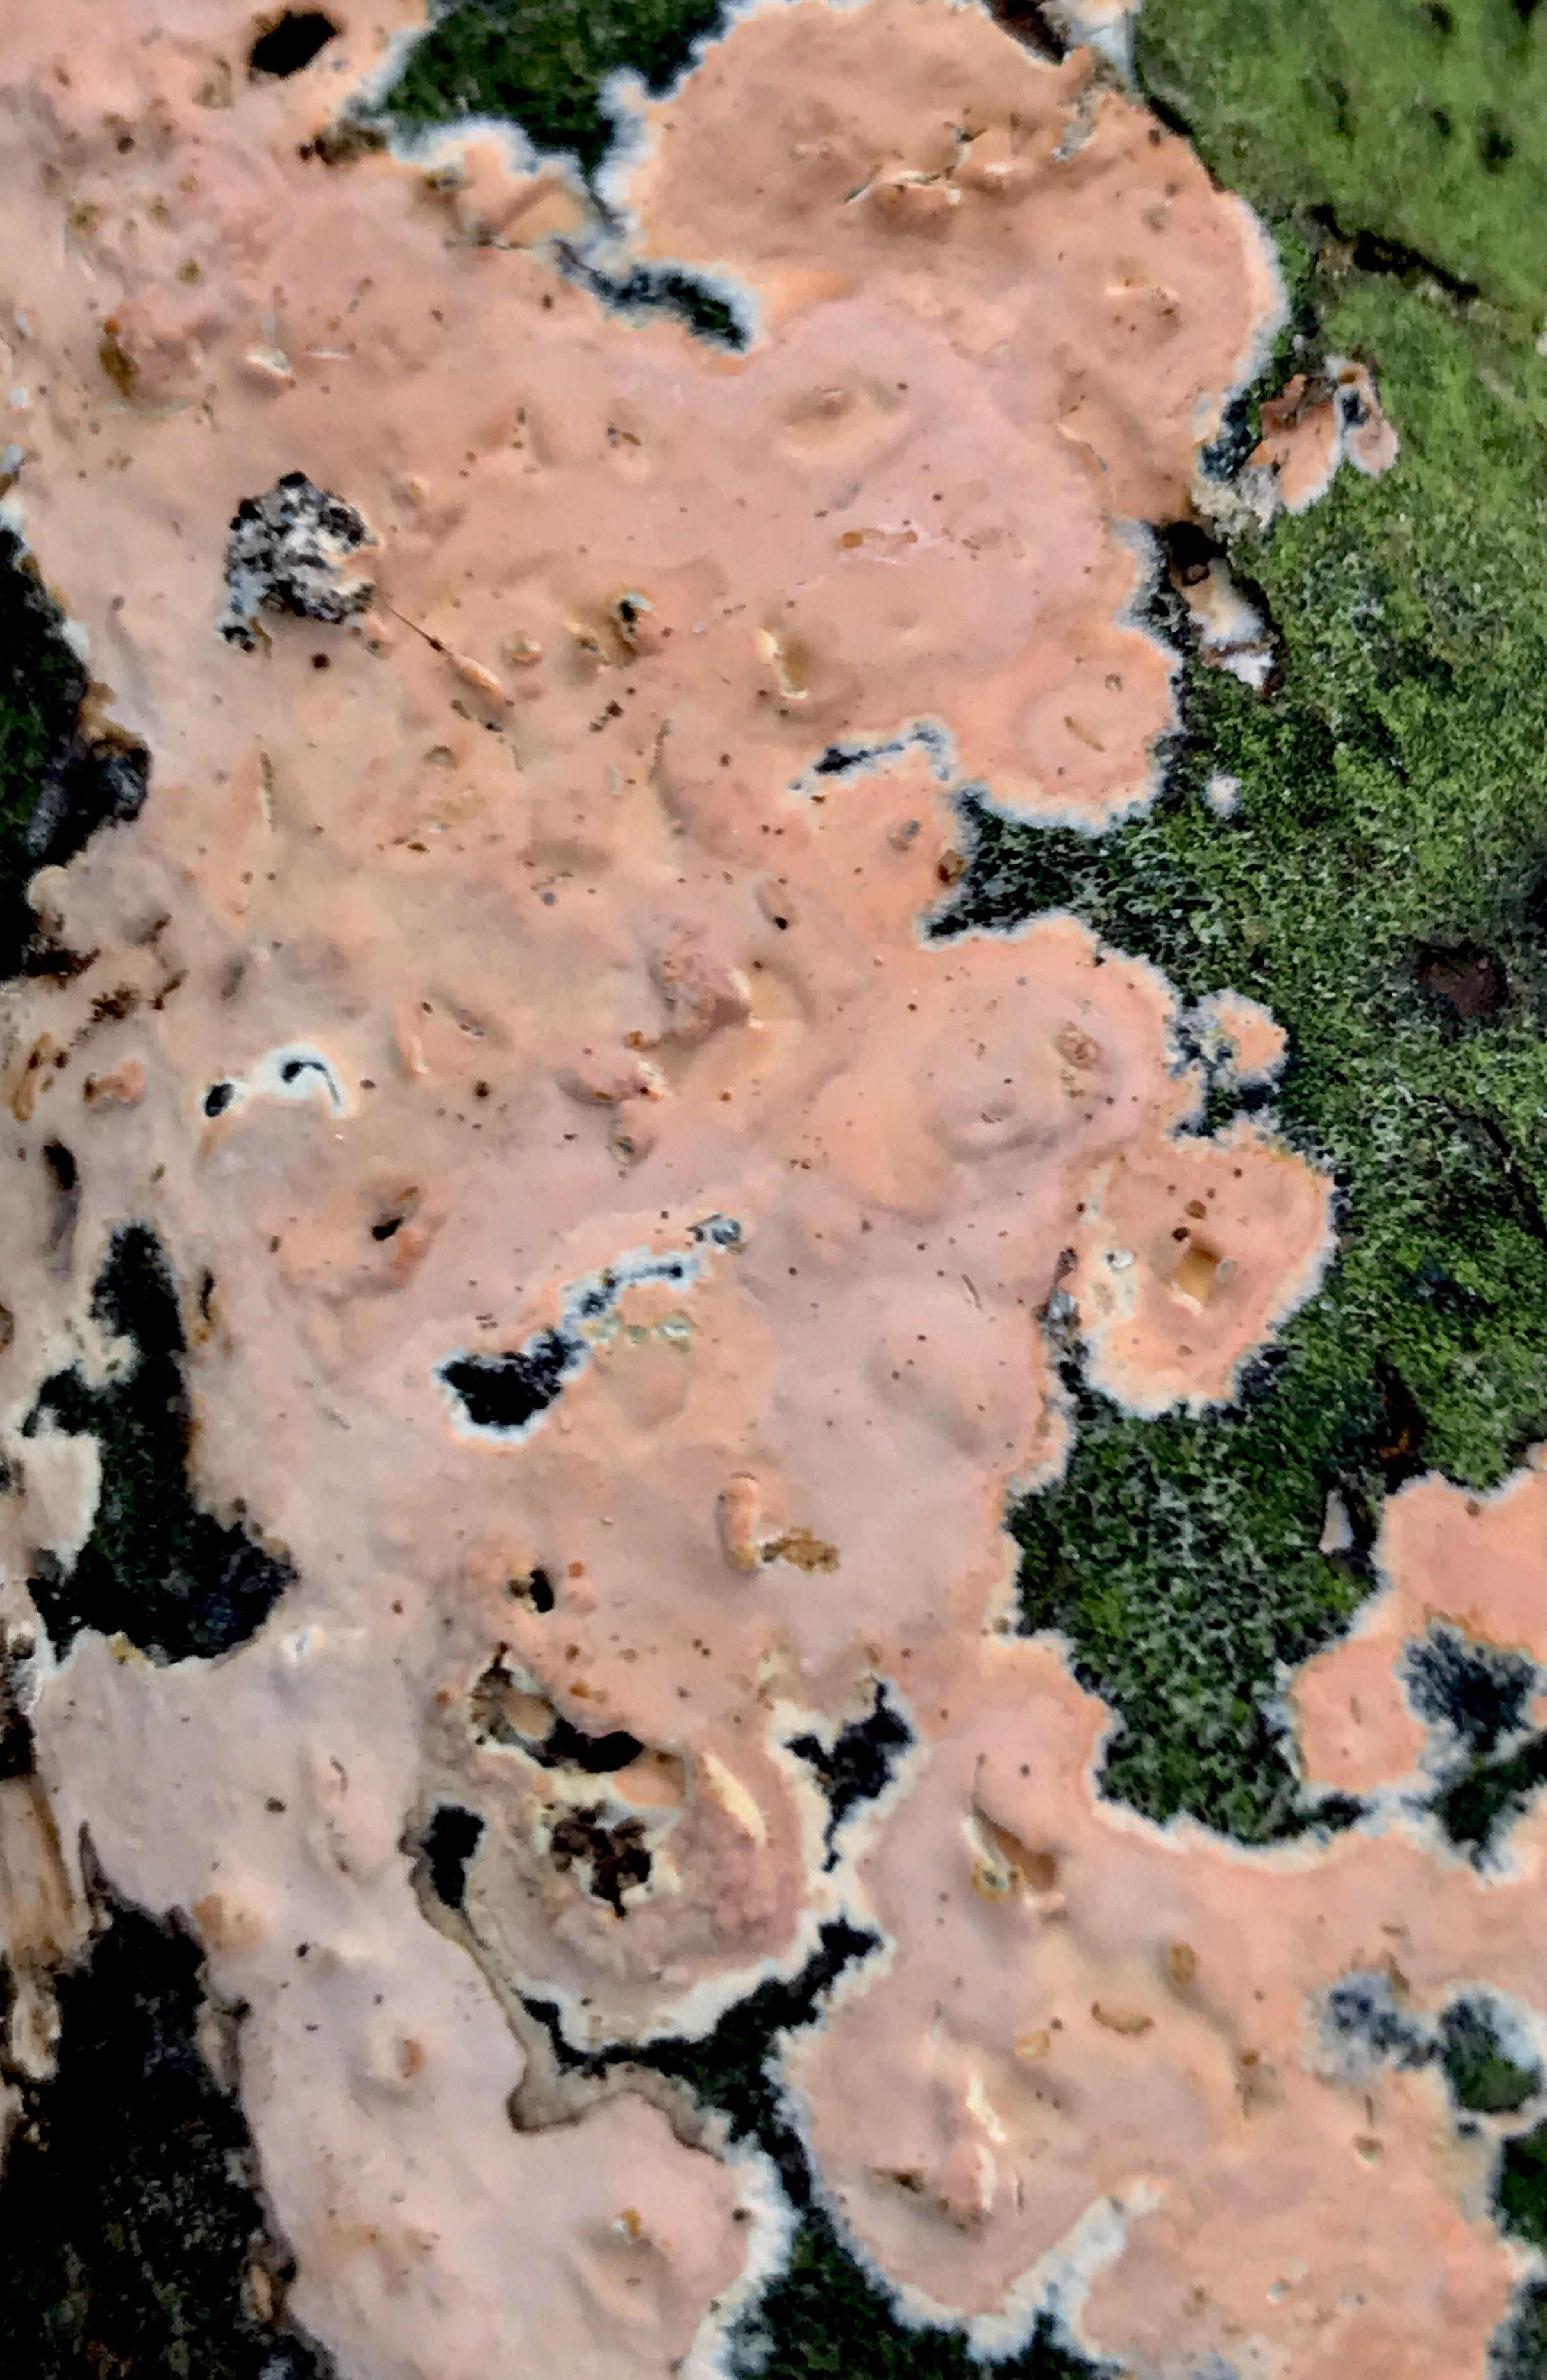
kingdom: Fungi
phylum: Basidiomycota
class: Agaricomycetes
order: Russulales
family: Peniophoraceae
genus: Peniophora
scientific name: Peniophora incarnata
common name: laksefarvet voksskind
